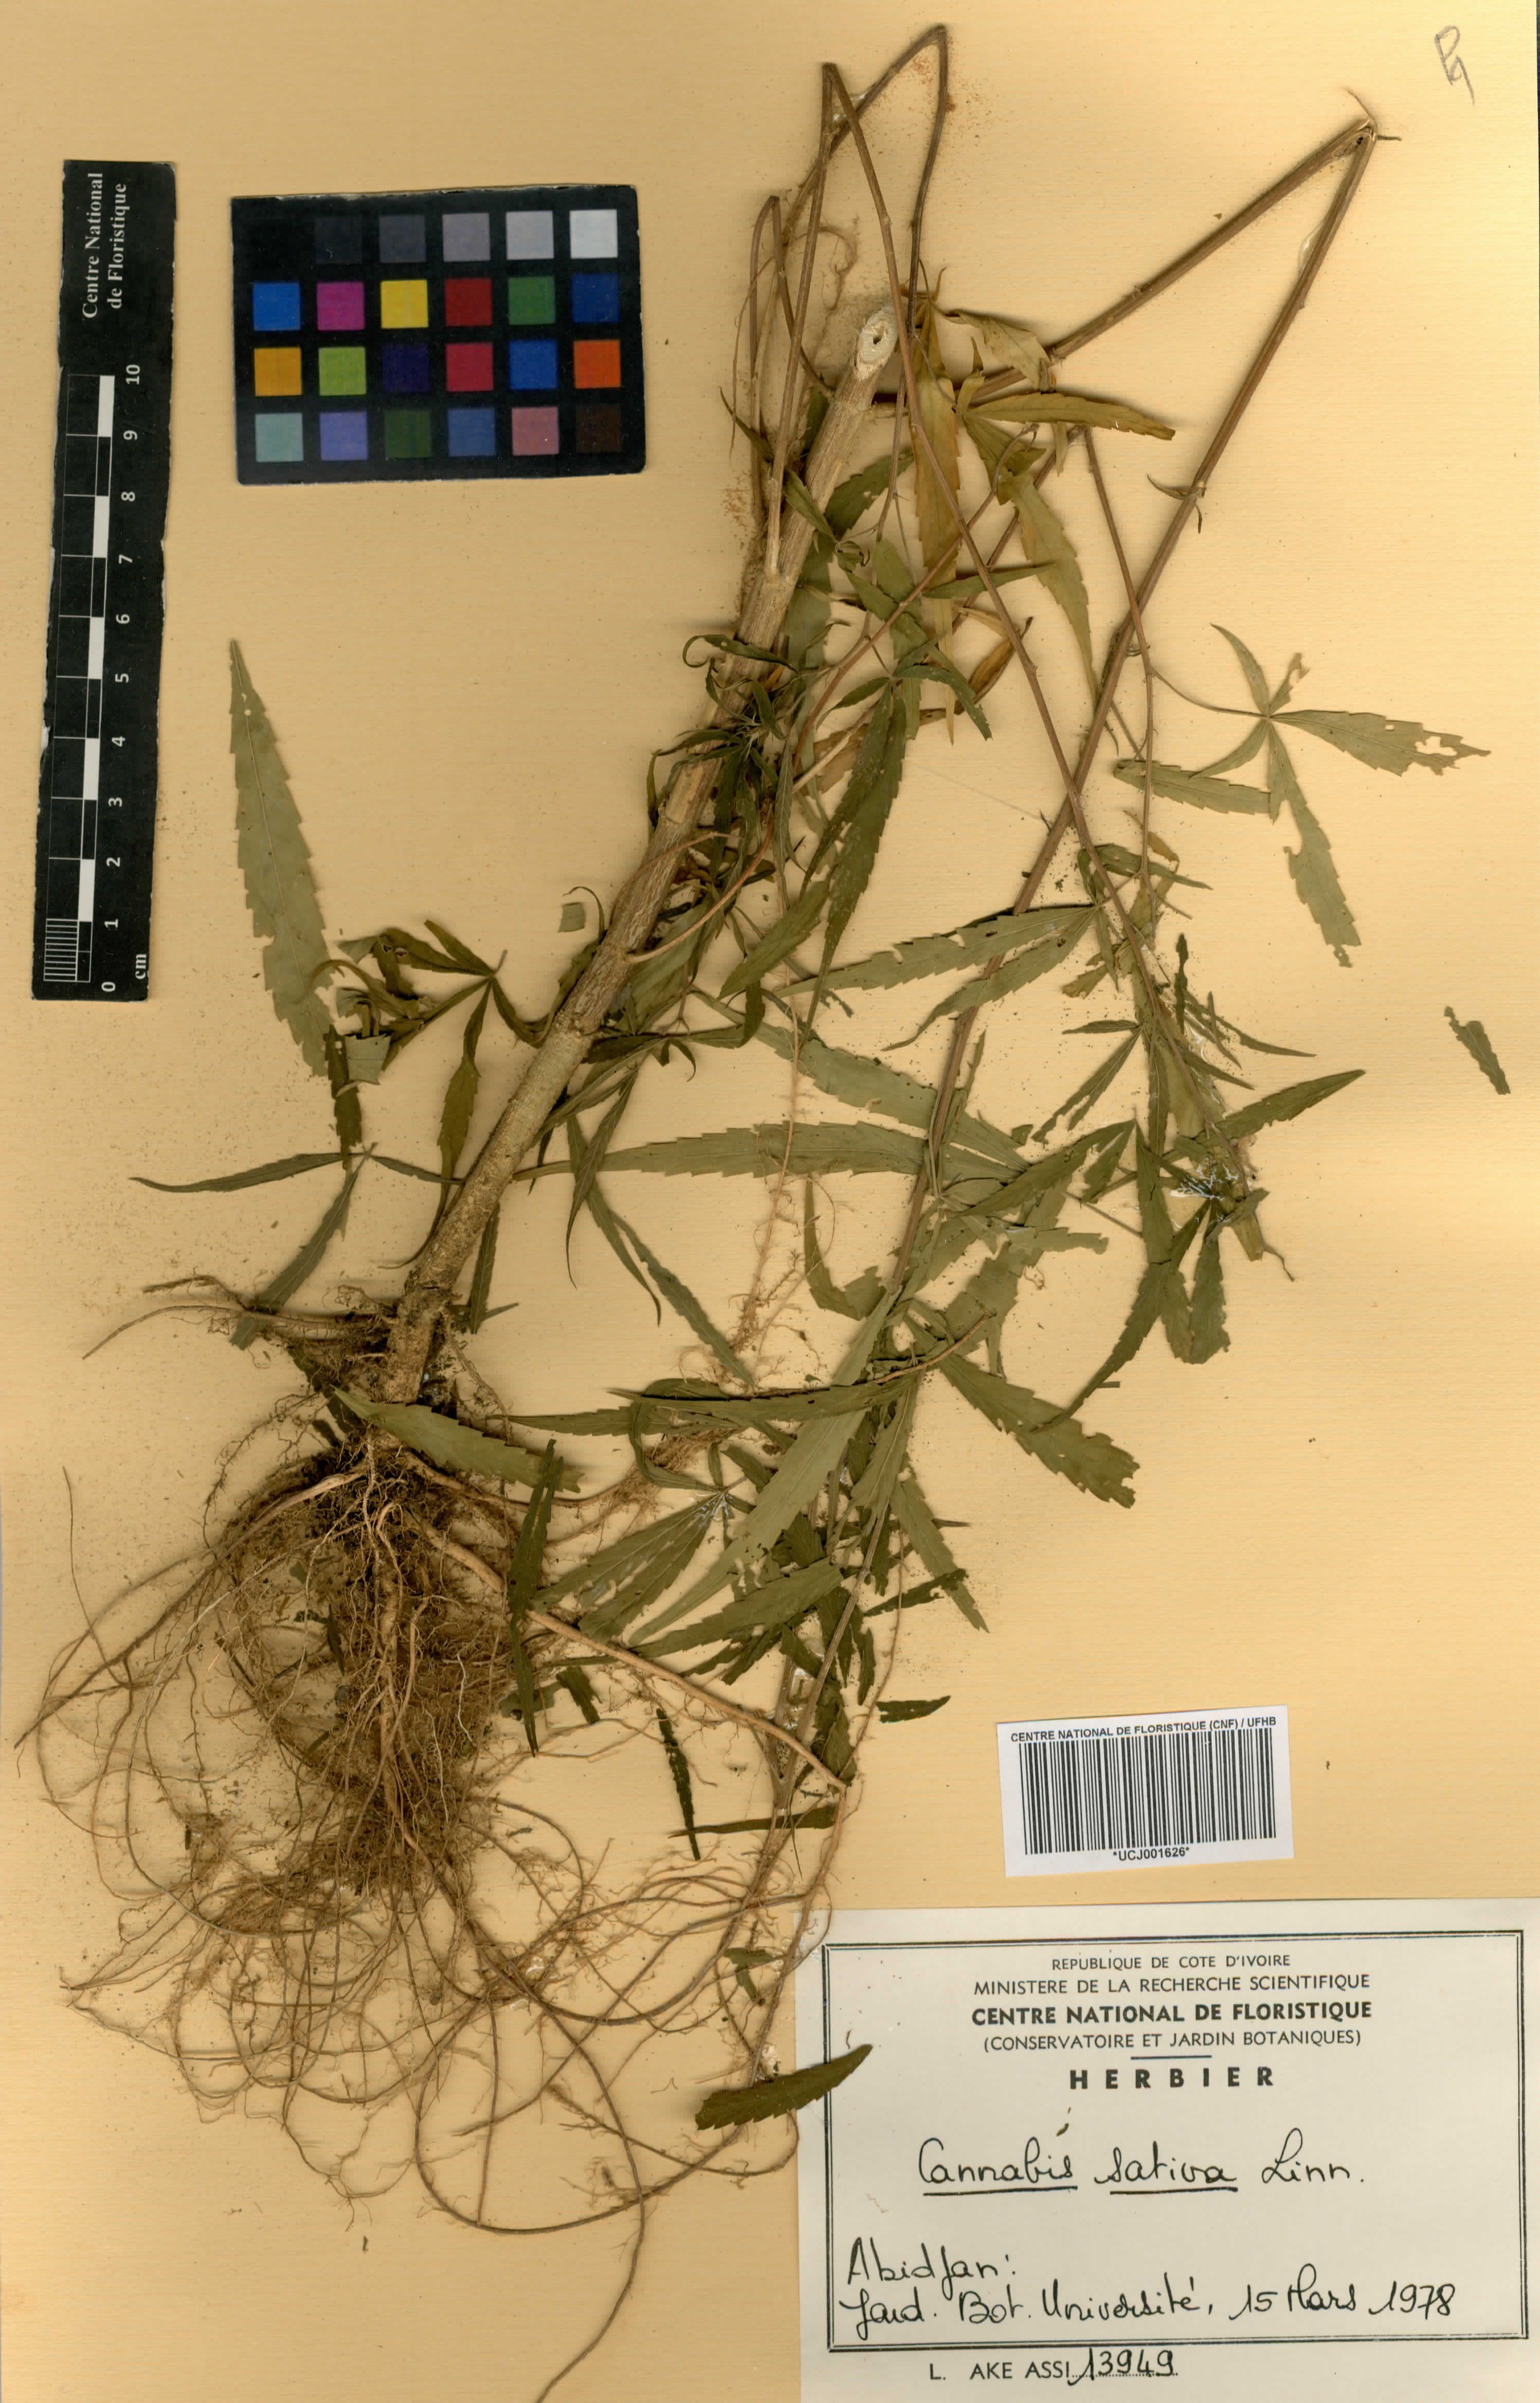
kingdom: Plantae
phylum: Tracheophyta
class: Magnoliopsida
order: Rosales
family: Cannabaceae
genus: Cannabis
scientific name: Cannabis sativa
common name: Hemp
